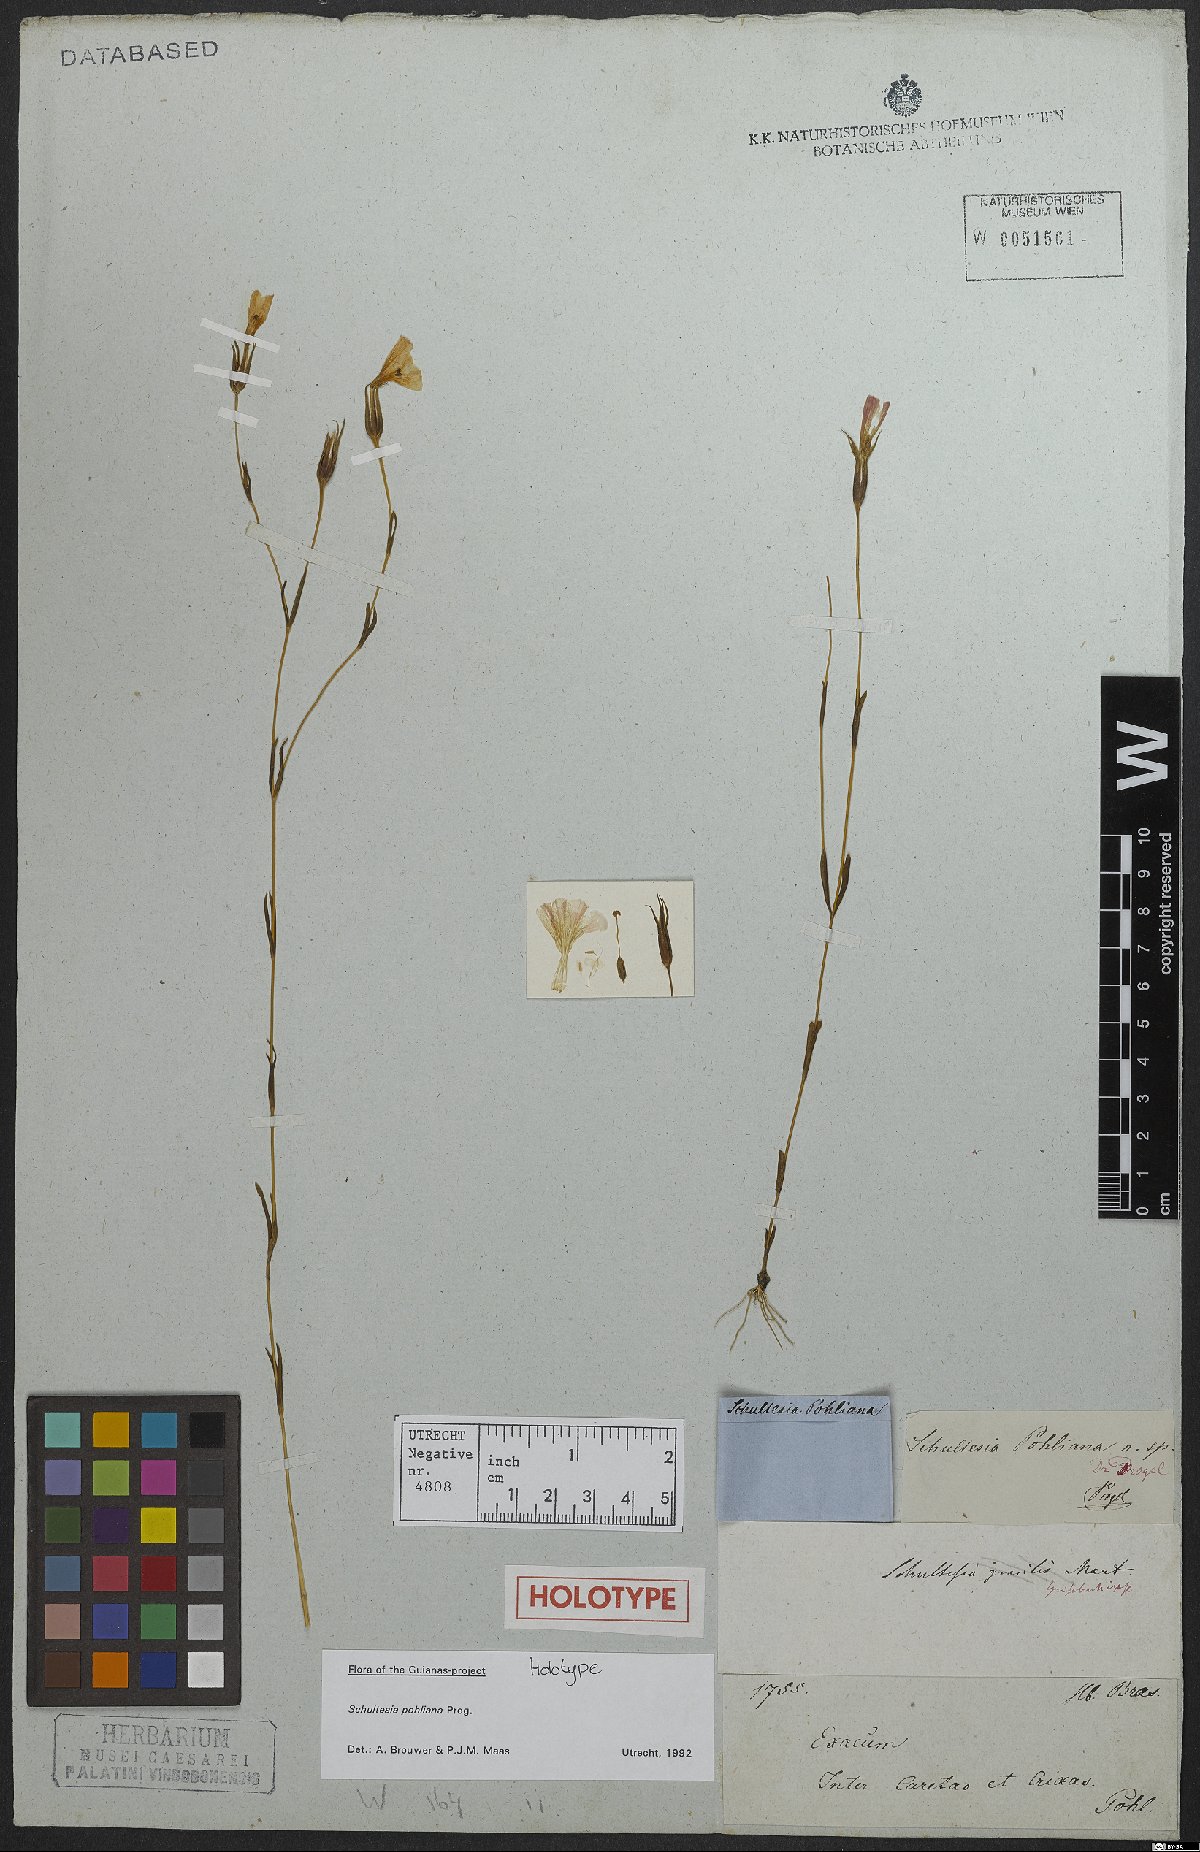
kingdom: Plantae
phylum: Tracheophyta
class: Magnoliopsida
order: Gentianales
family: Gentianaceae
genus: Schultesia
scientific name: Schultesia pohliana
